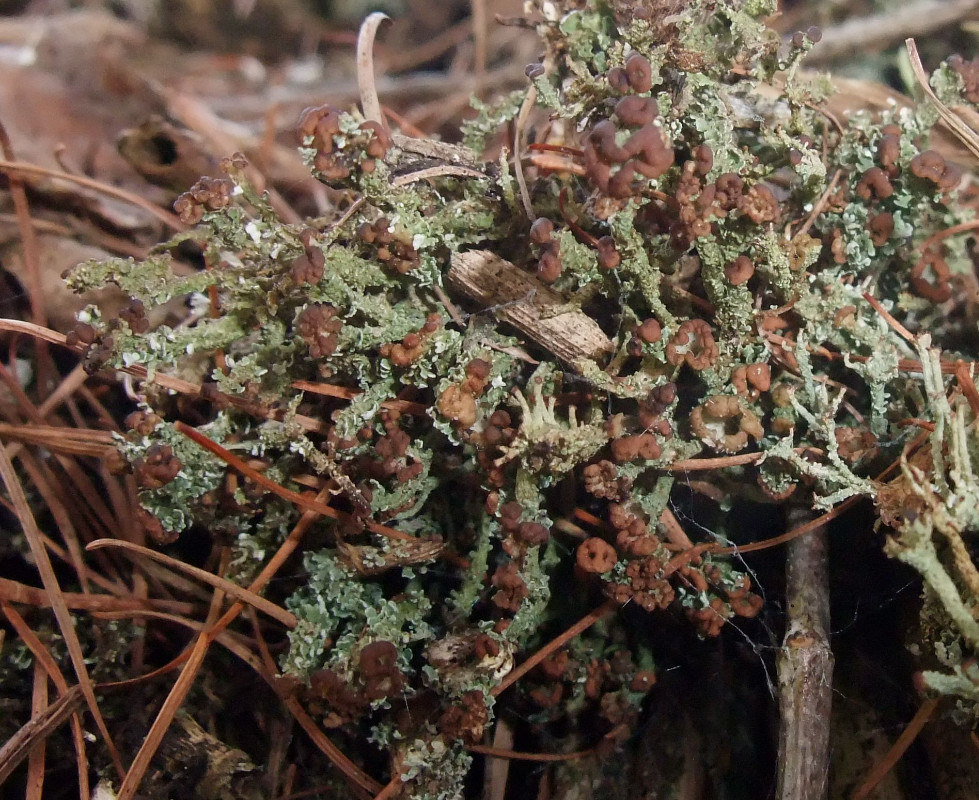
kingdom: Fungi
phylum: Ascomycota
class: Lecanoromycetes
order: Lecanorales
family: Cladoniaceae
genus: Cladonia
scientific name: Cladonia ramulosa
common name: kliddet bægerlav
